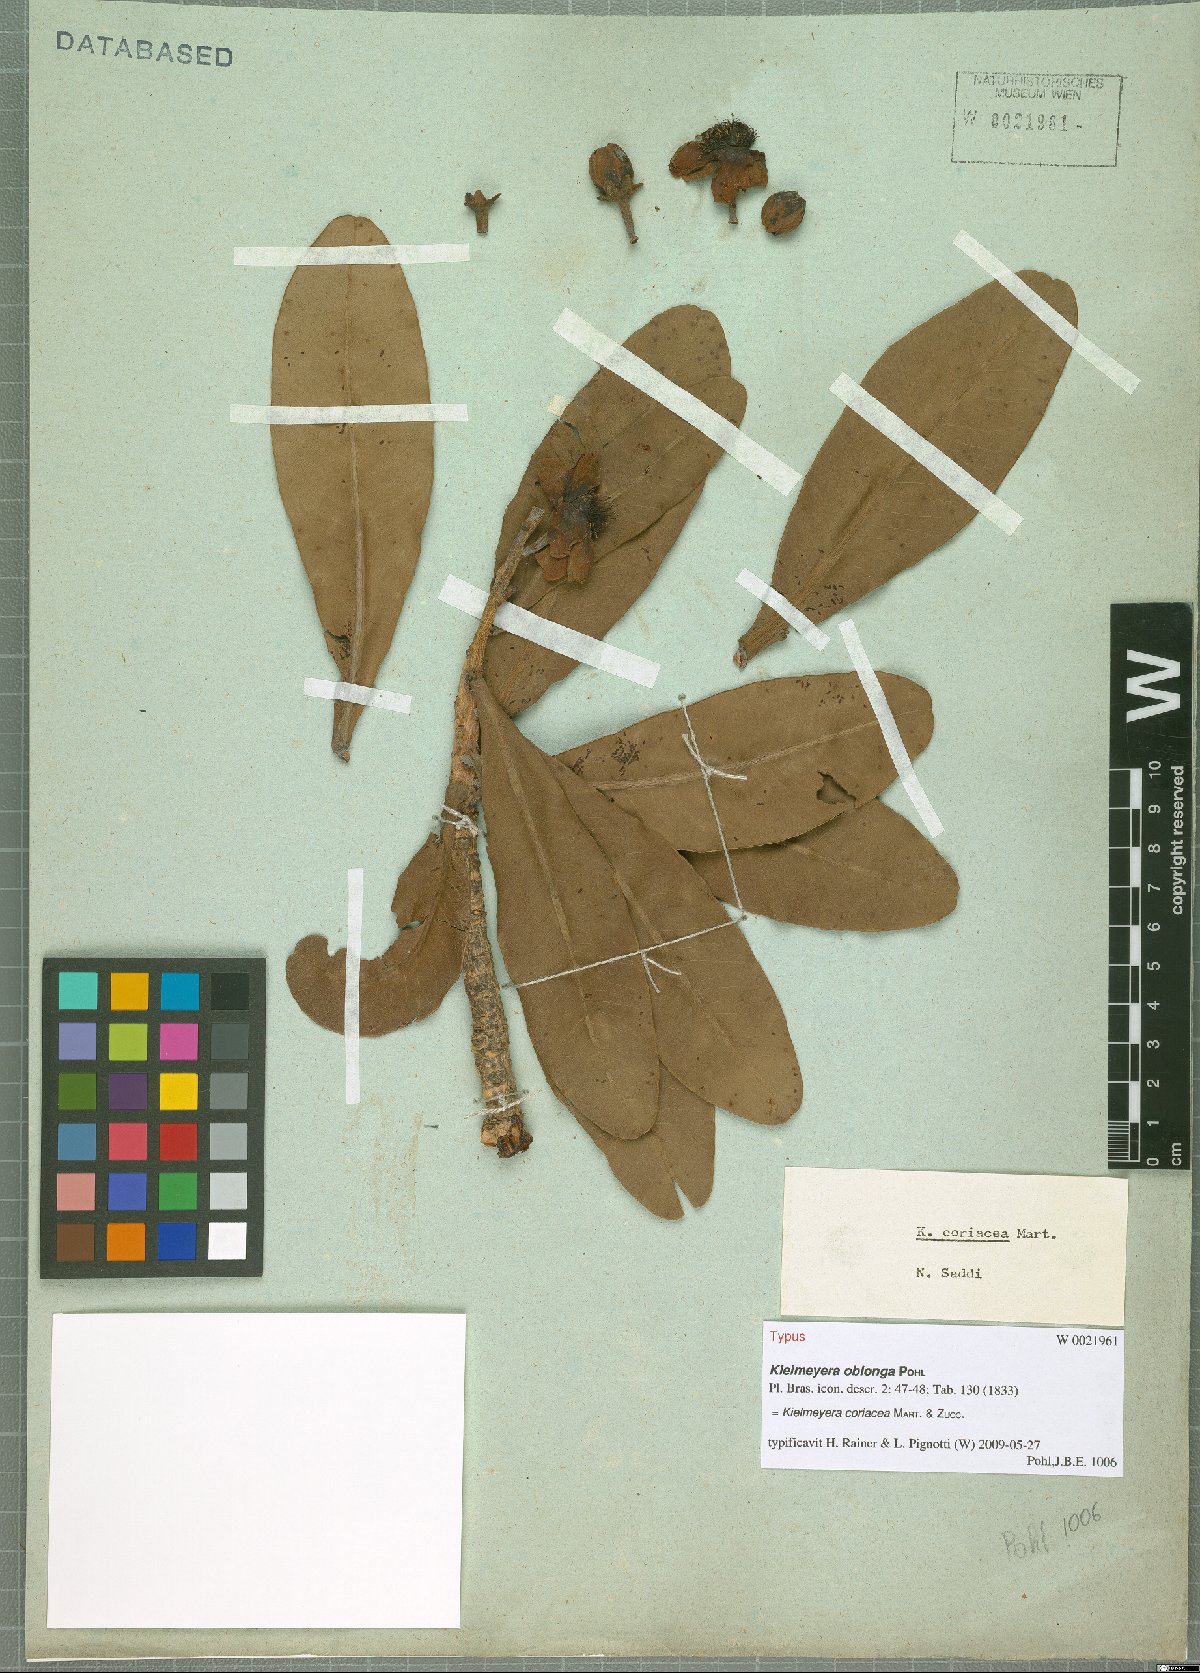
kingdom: Plantae
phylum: Tracheophyta
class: Magnoliopsida
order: Malpighiales
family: Calophyllaceae
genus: Kielmeyera
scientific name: Kielmeyera coriacea
